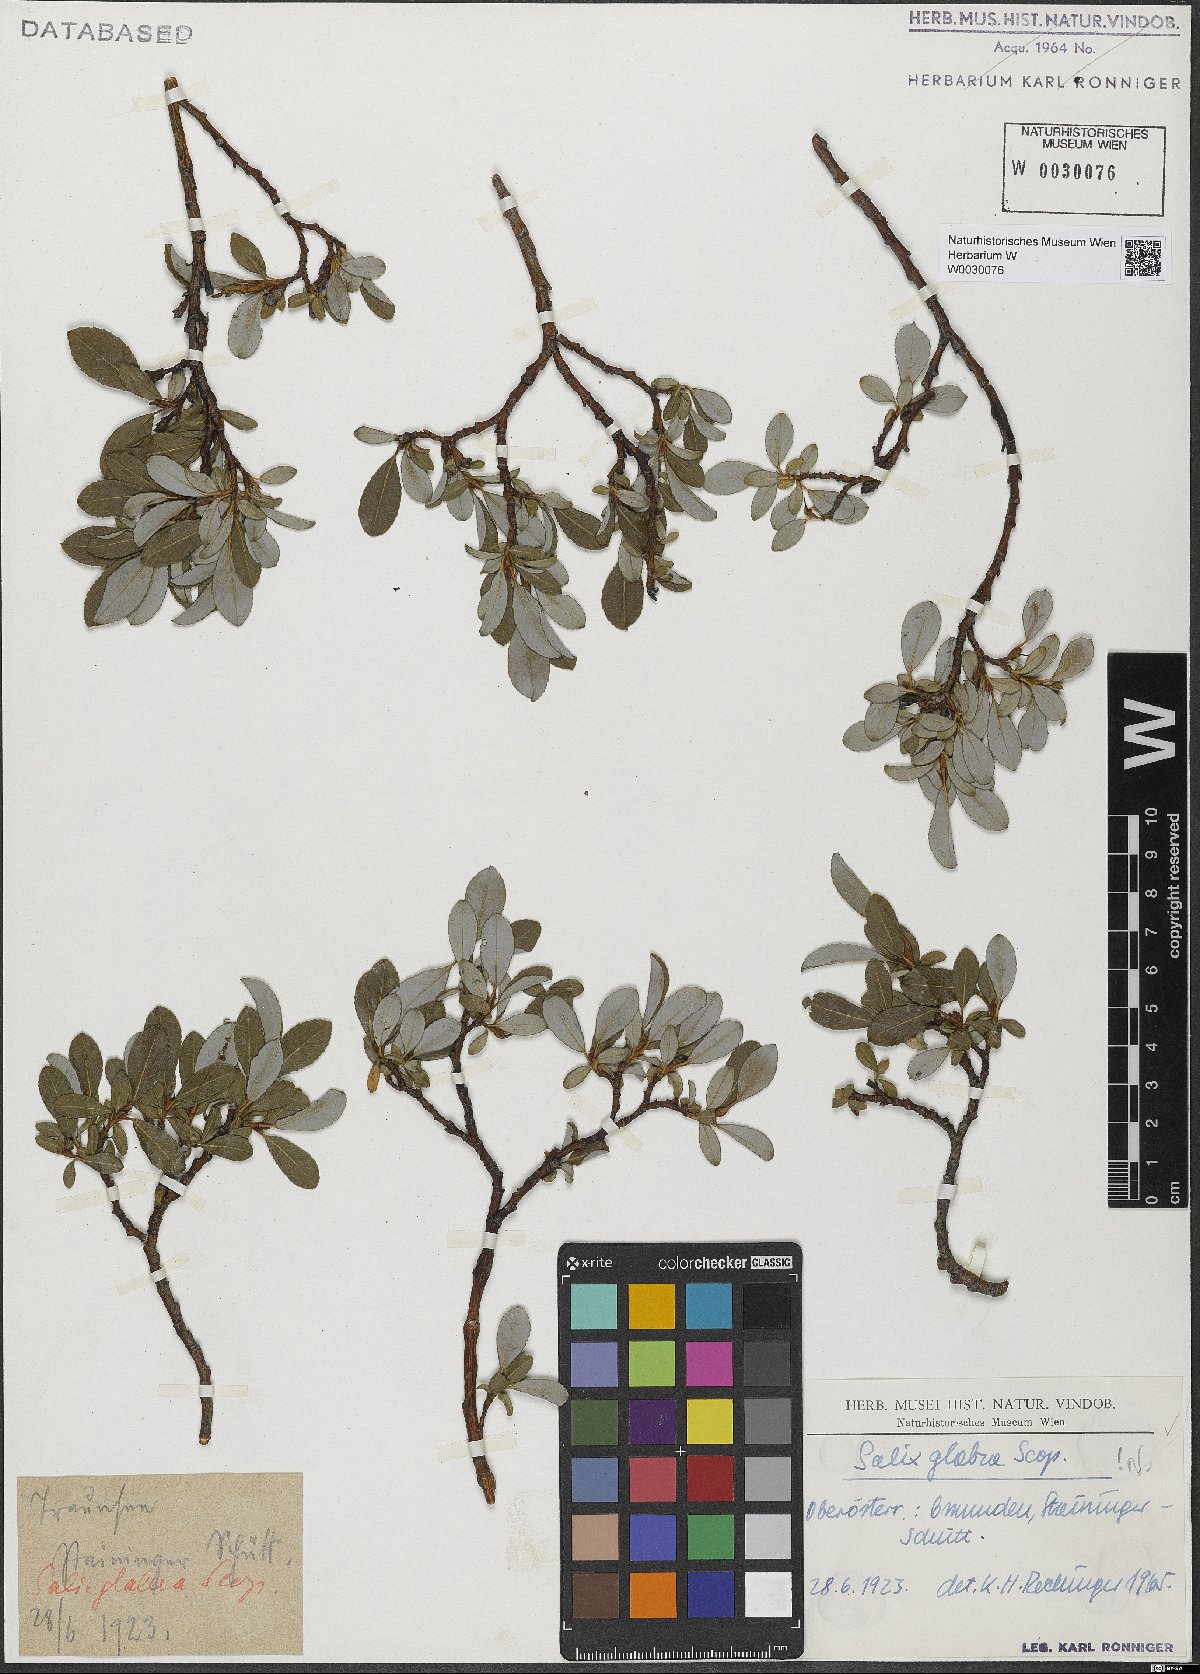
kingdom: Plantae
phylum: Tracheophyta
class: Magnoliopsida
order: Malpighiales
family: Salicaceae
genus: Salix
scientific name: Salix glabra
